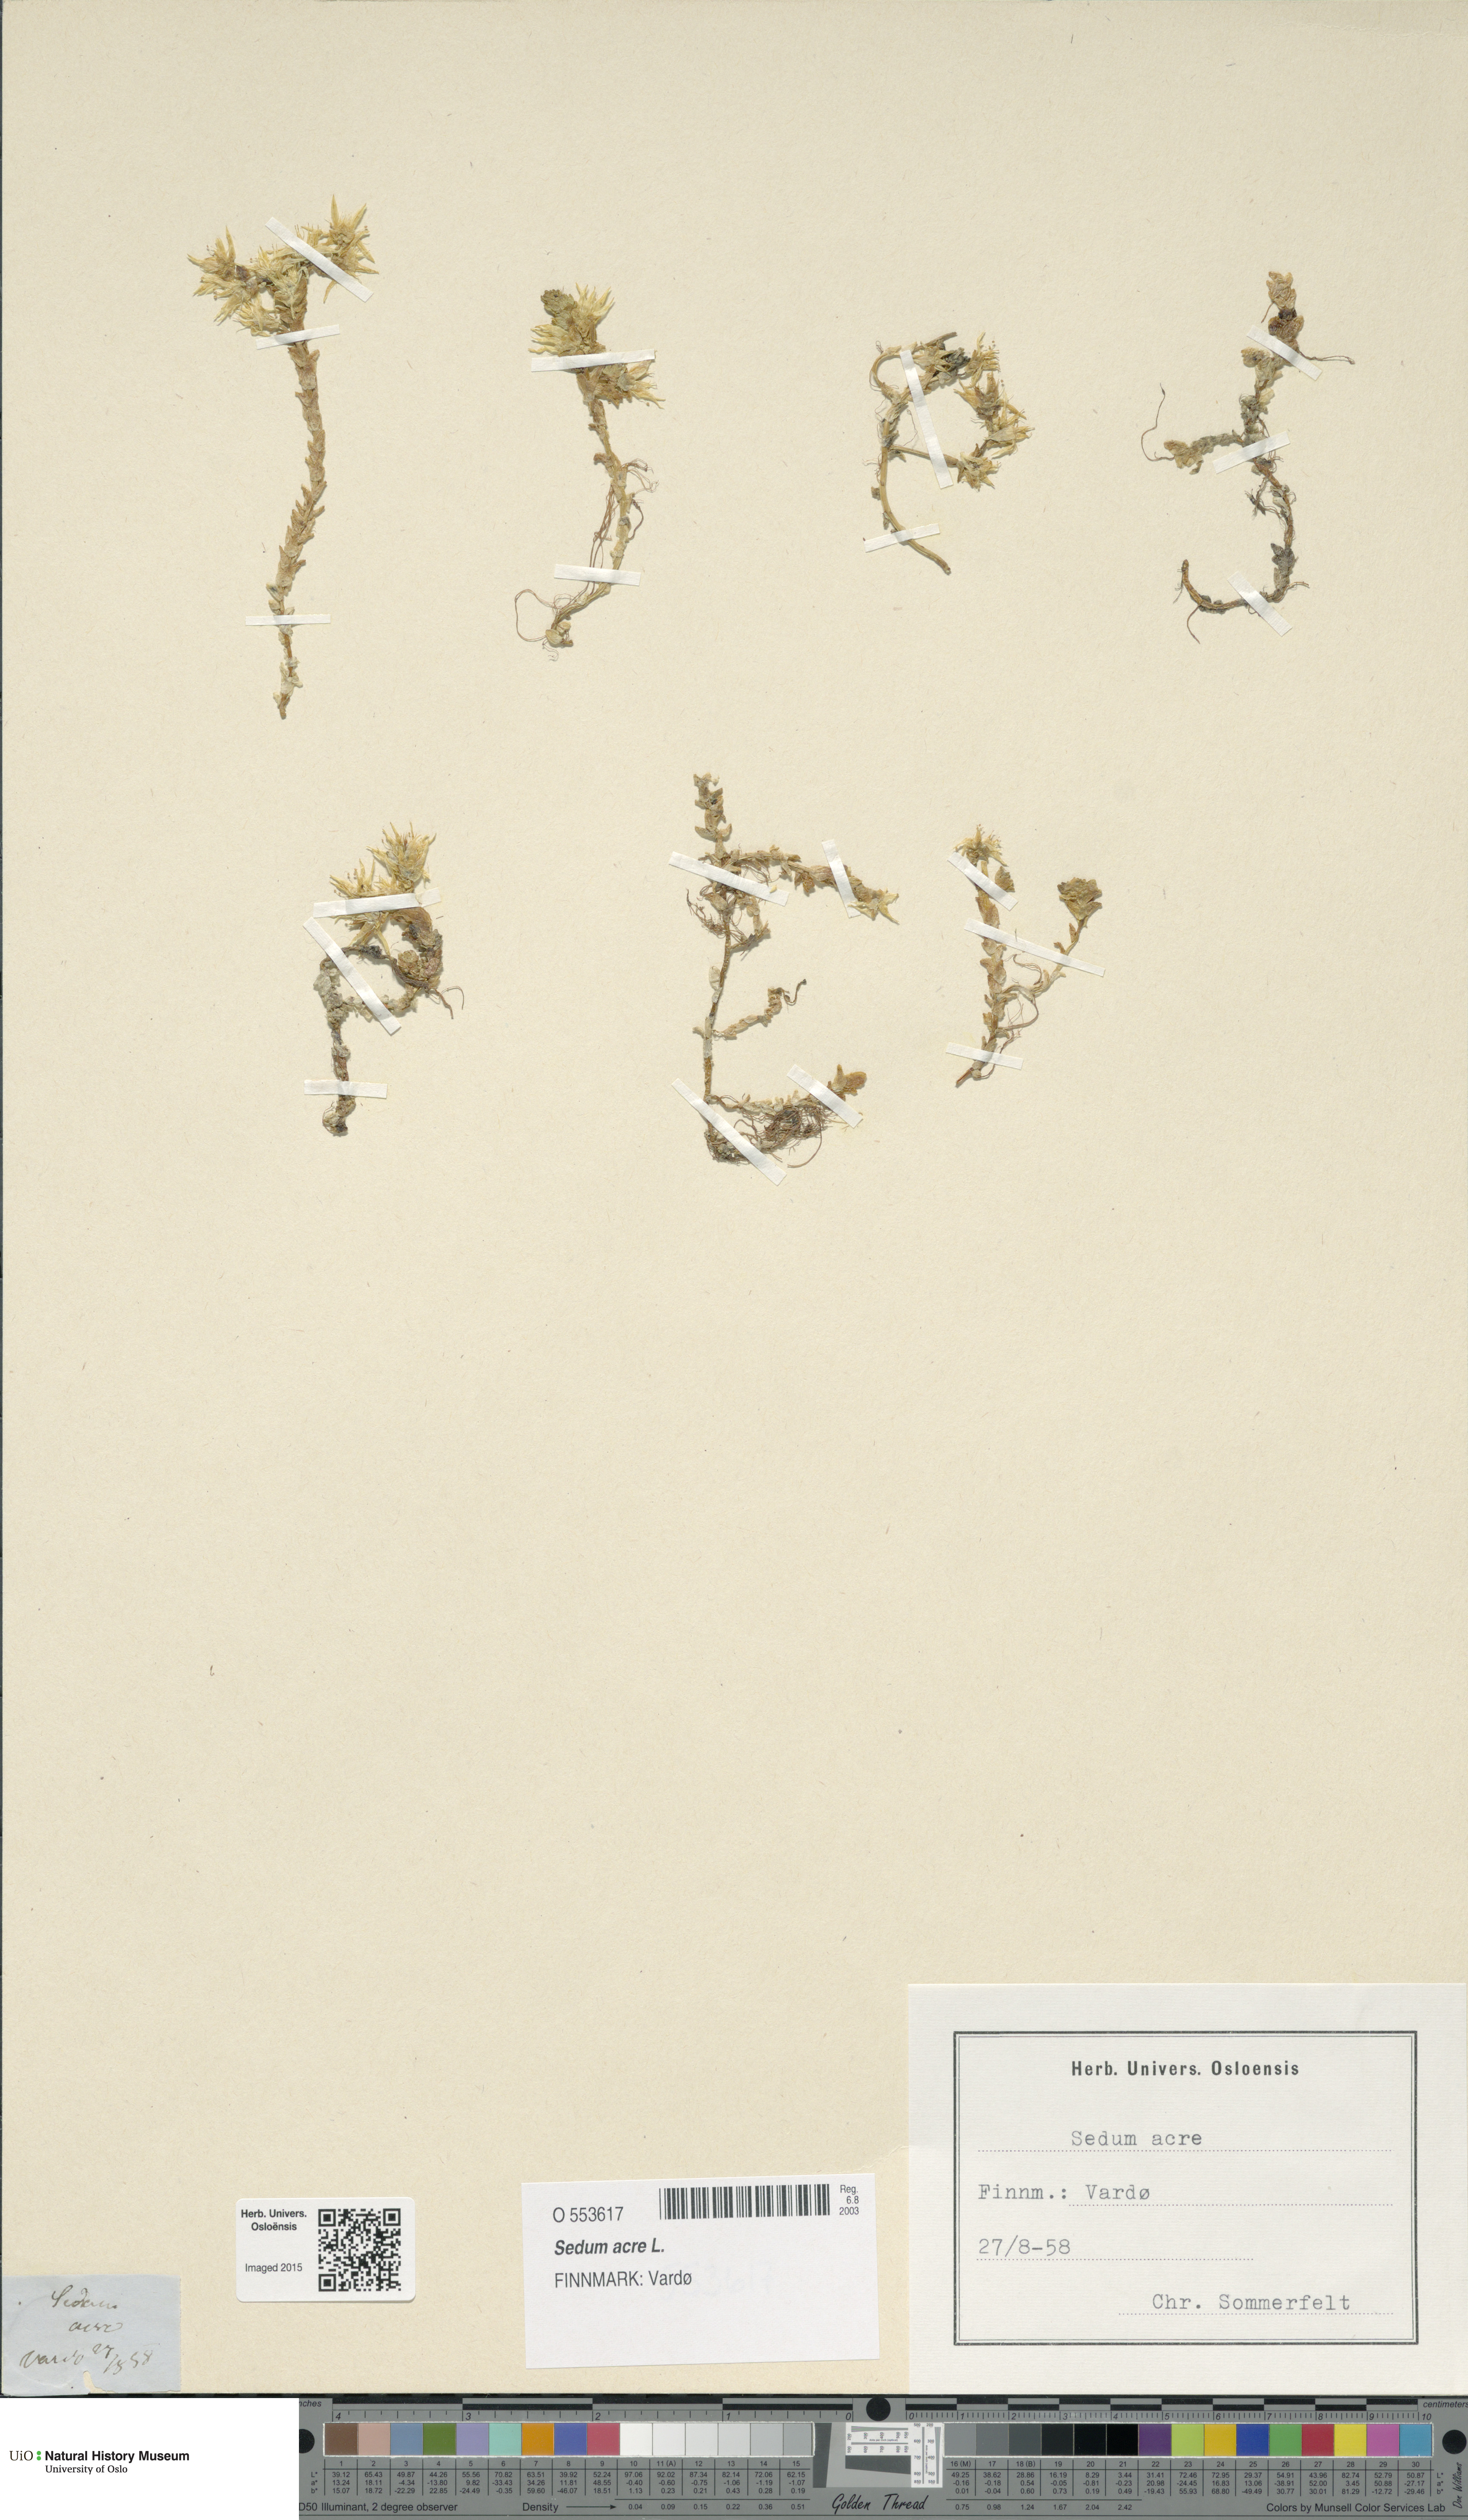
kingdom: Plantae
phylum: Tracheophyta
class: Magnoliopsida
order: Saxifragales
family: Crassulaceae
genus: Sedum
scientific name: Sedum acre
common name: Biting stonecrop
